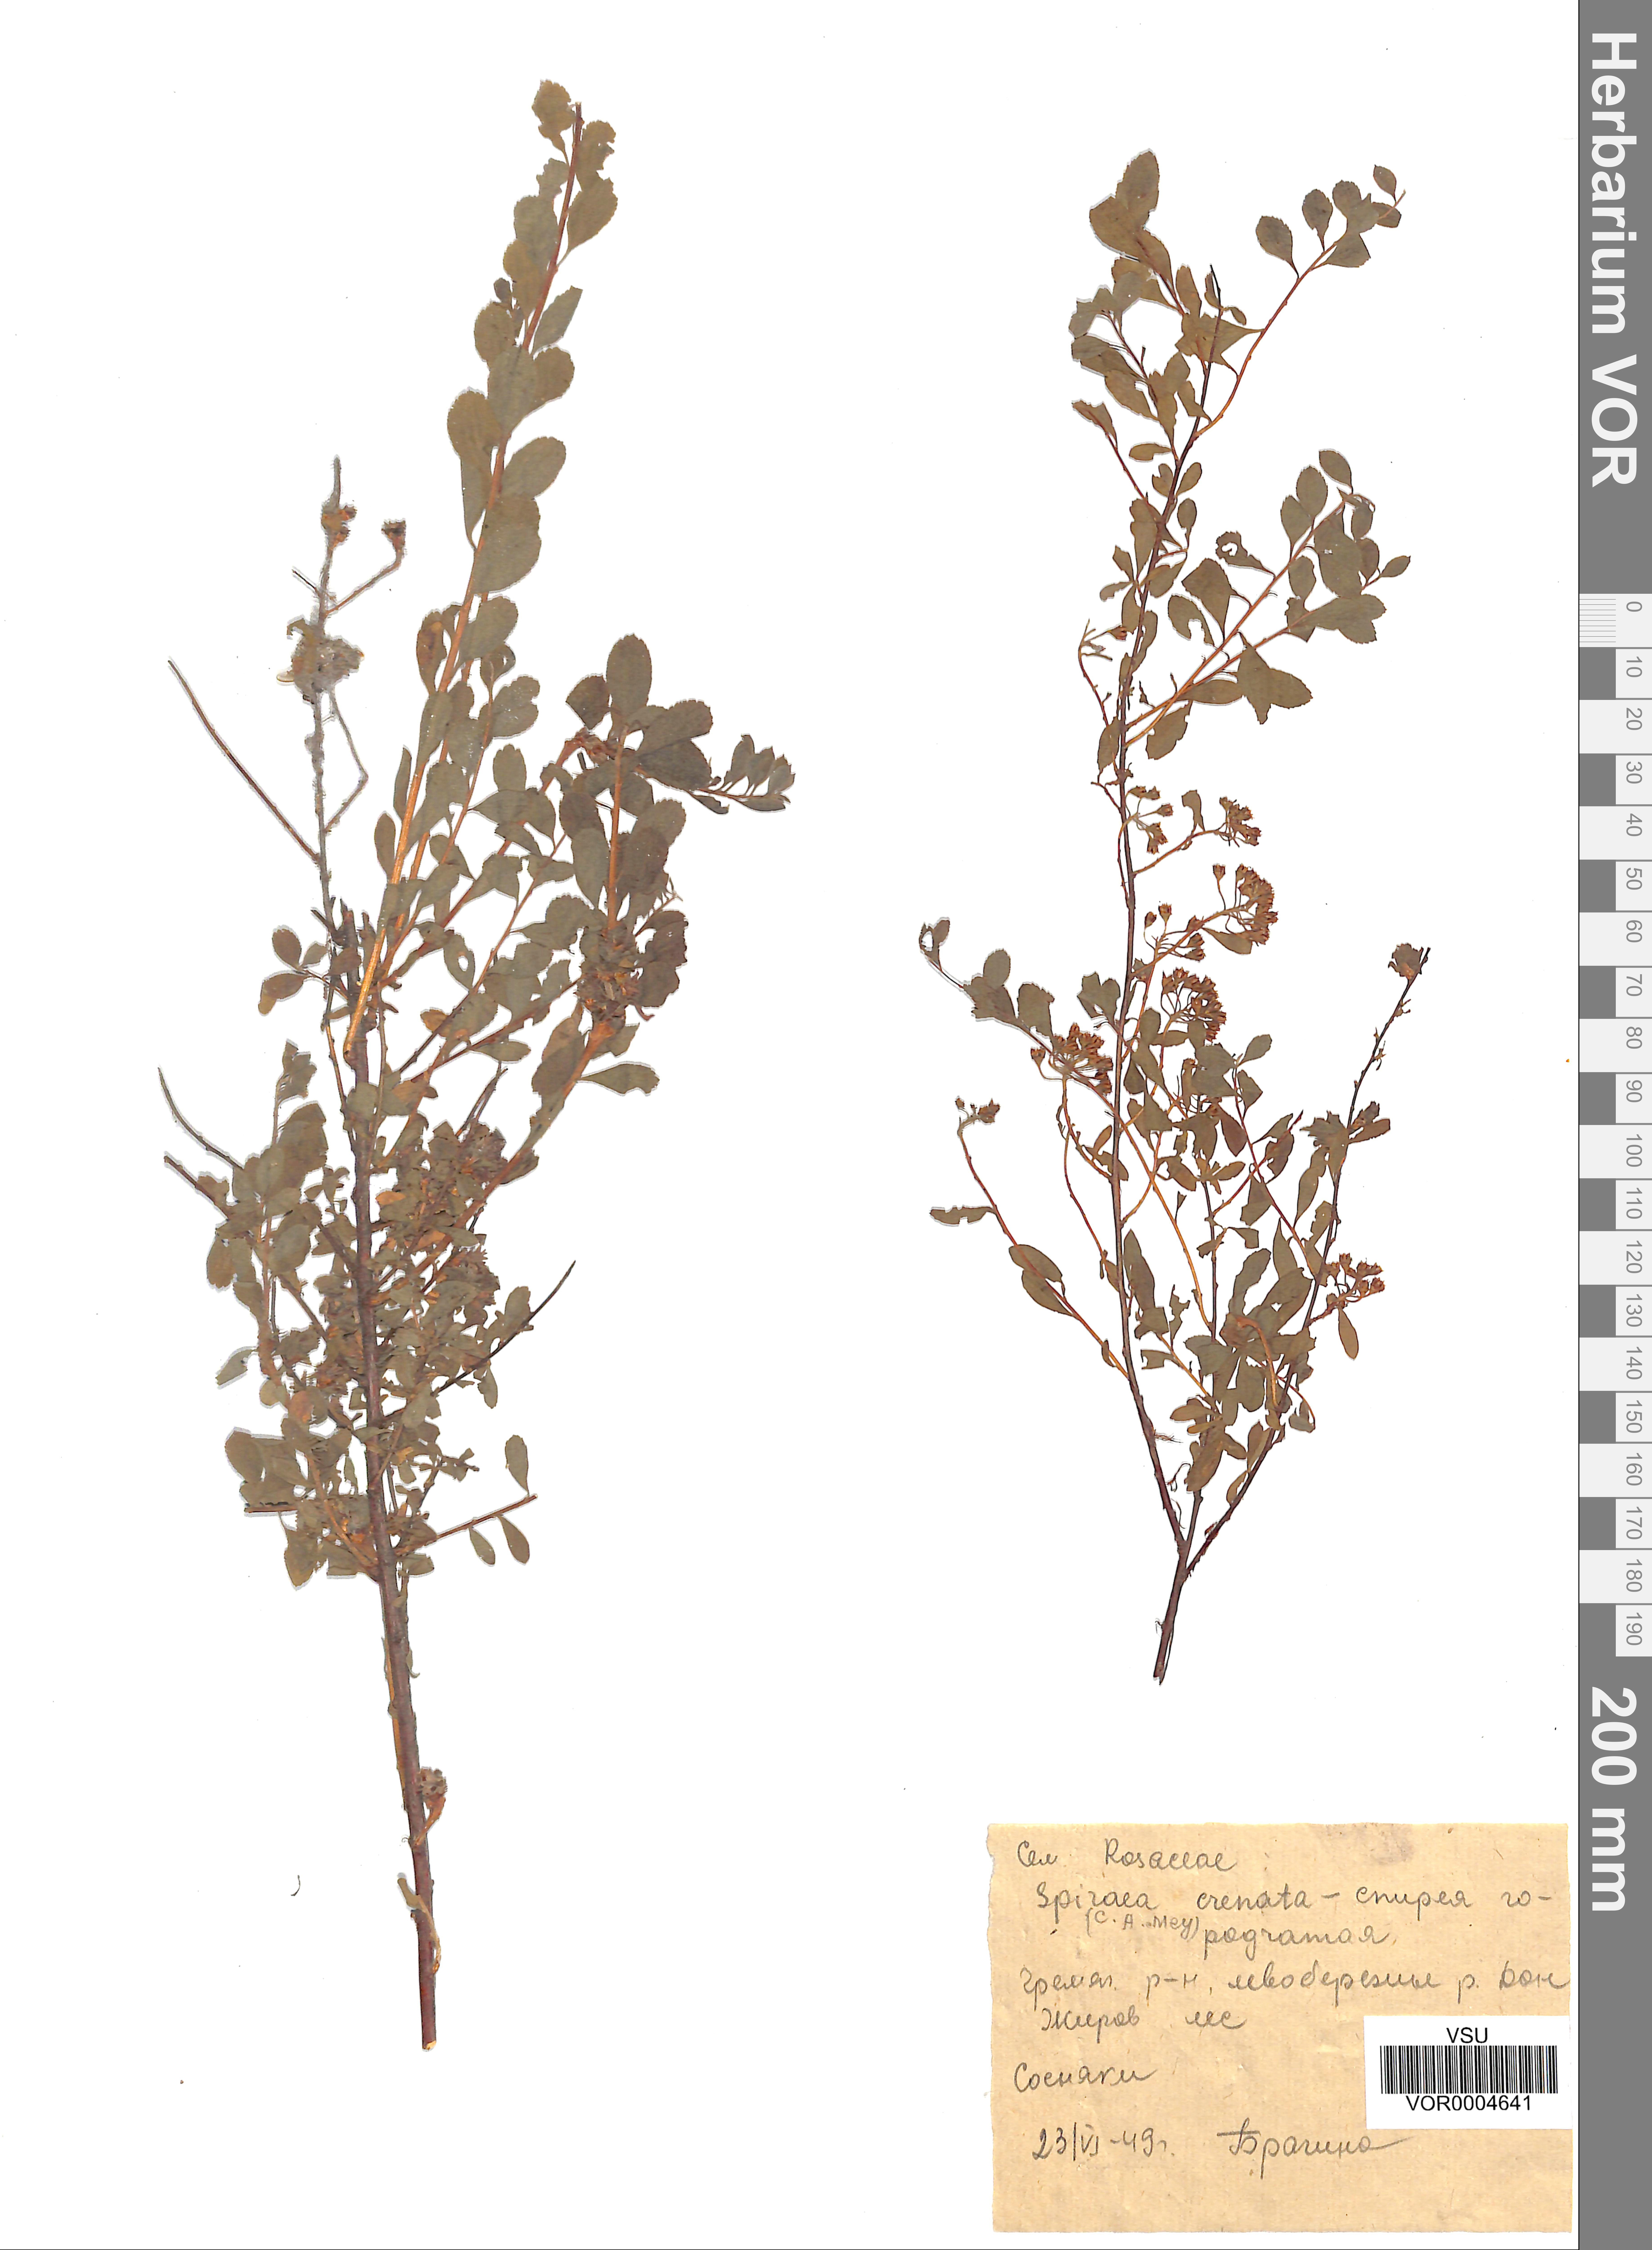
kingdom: Plantae
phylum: Tracheophyta
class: Magnoliopsida
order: Rosales
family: Rosaceae
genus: Spiraea
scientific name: Spiraea crenata
